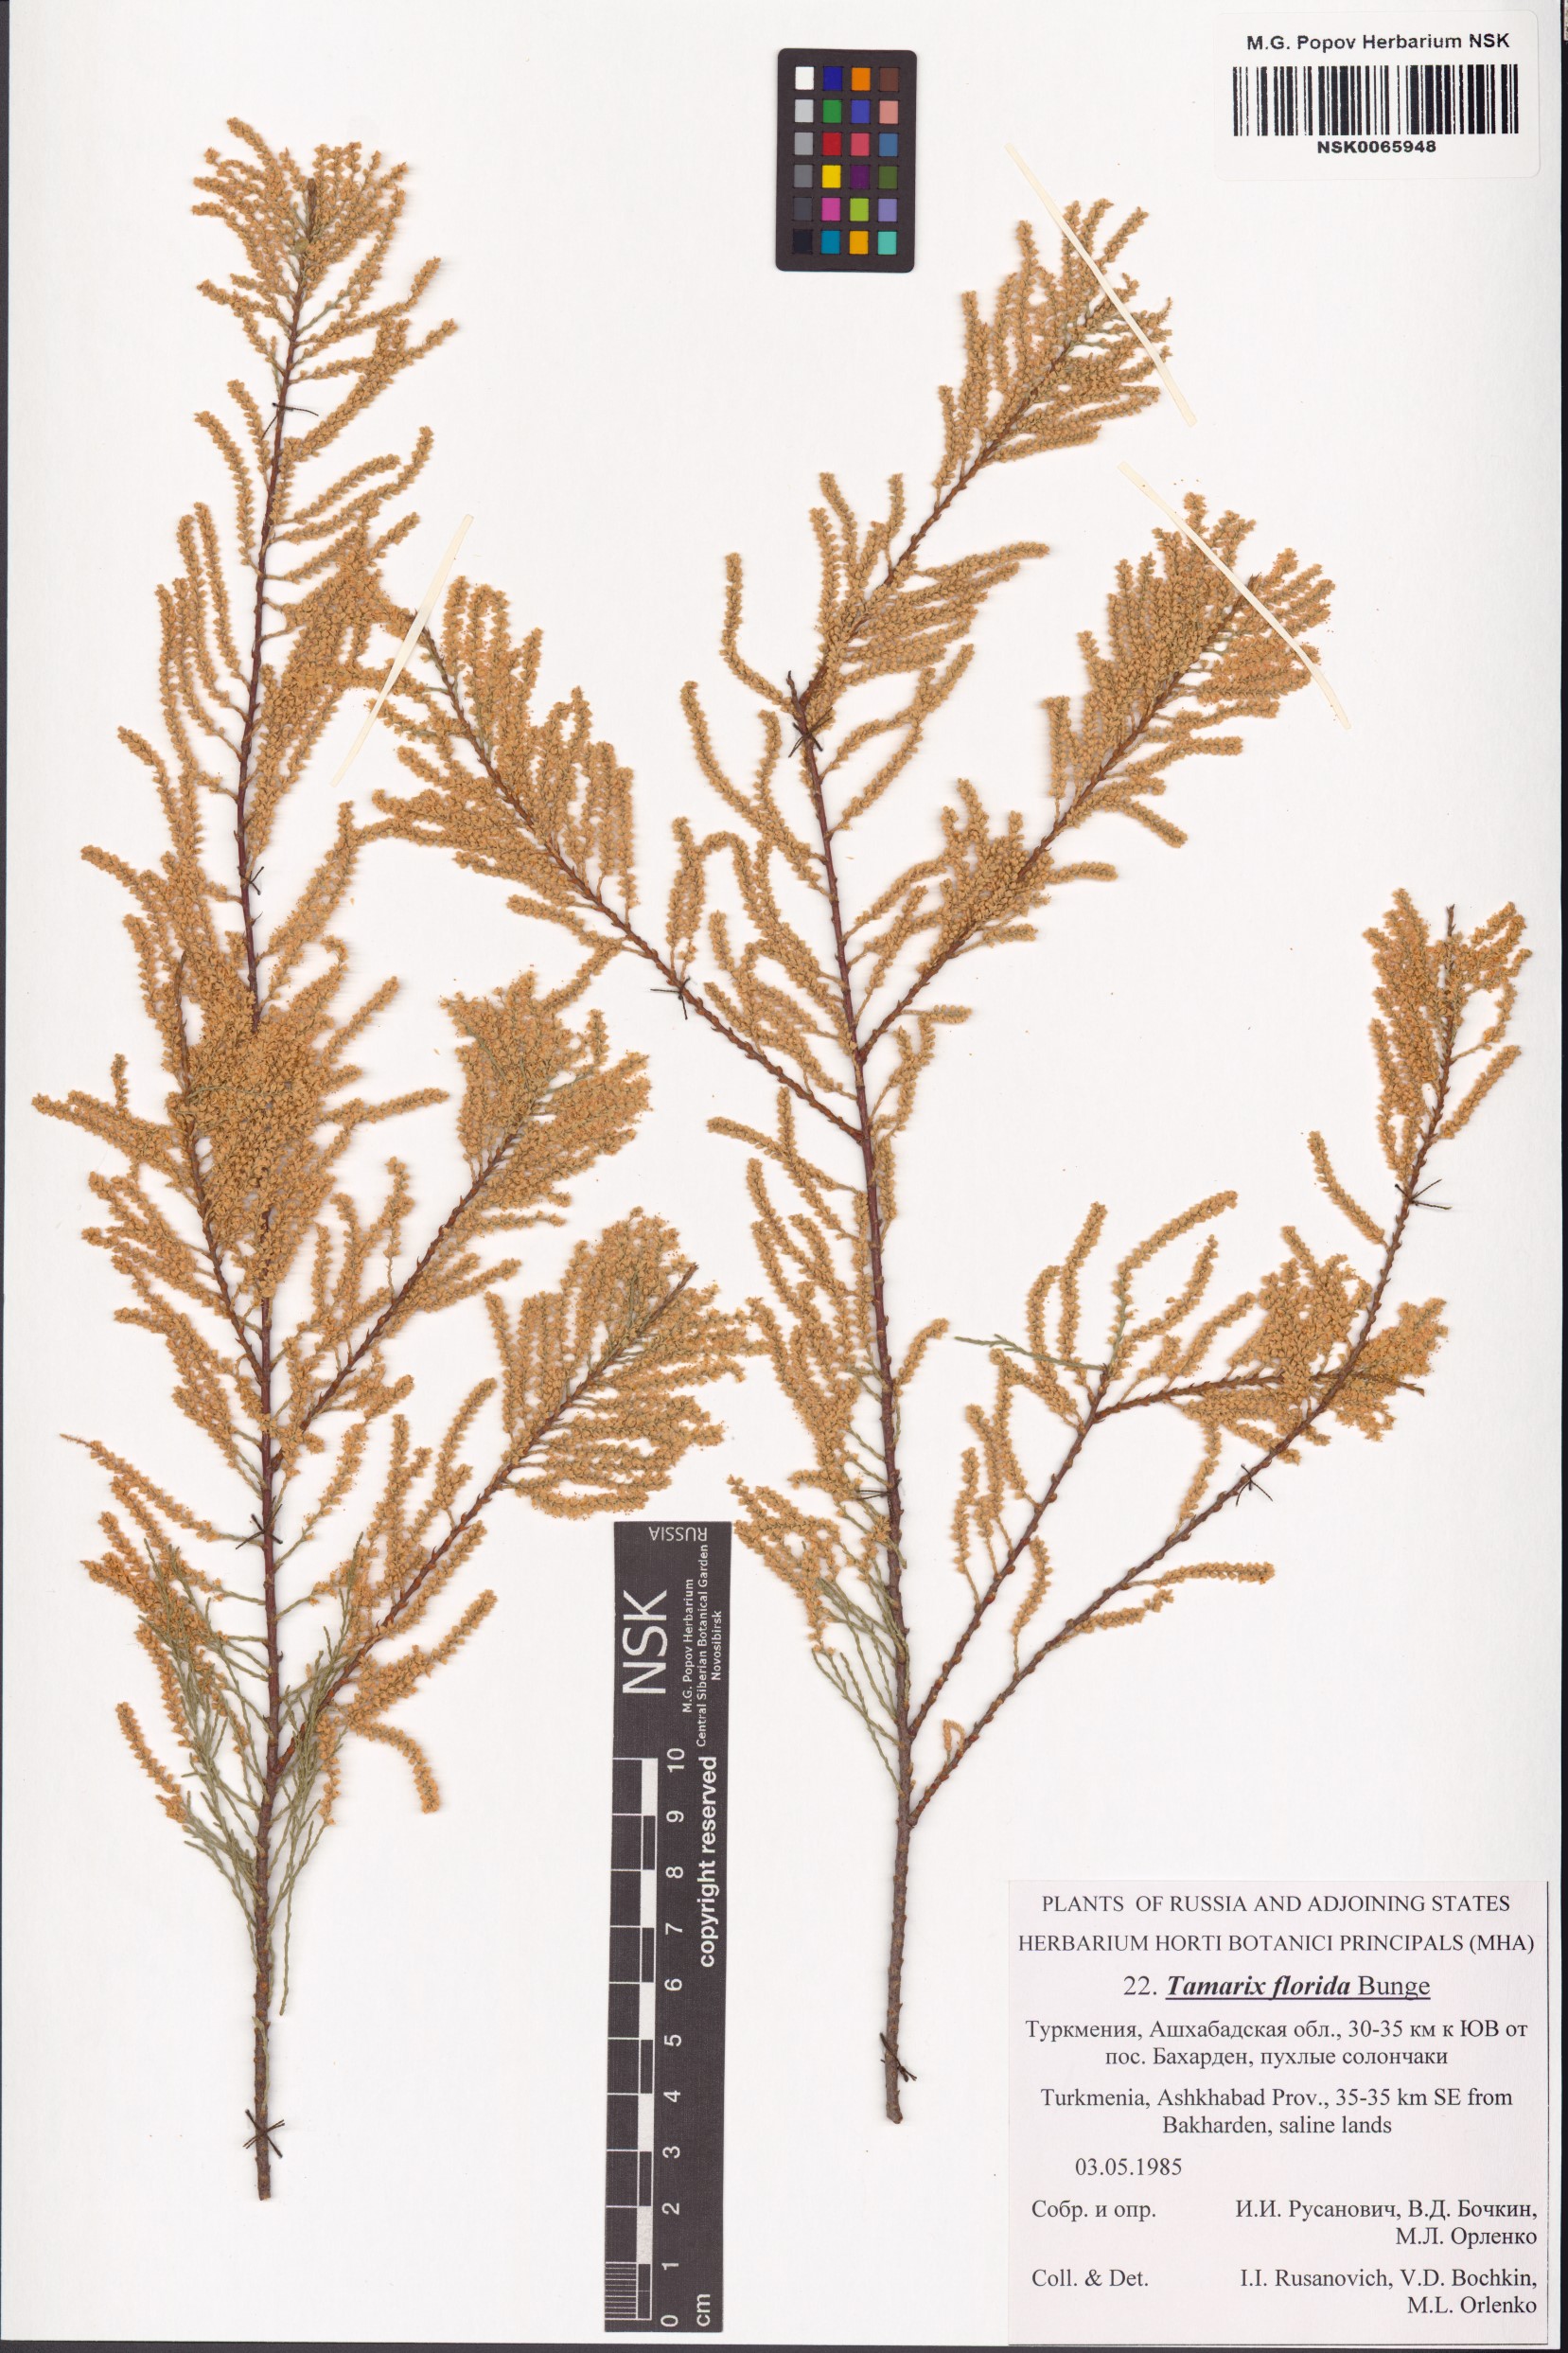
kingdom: Plantae
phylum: Tracheophyta
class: Magnoliopsida
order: Caryophyllales
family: Tamaricaceae
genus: Tamarix
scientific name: Tamarix florida
